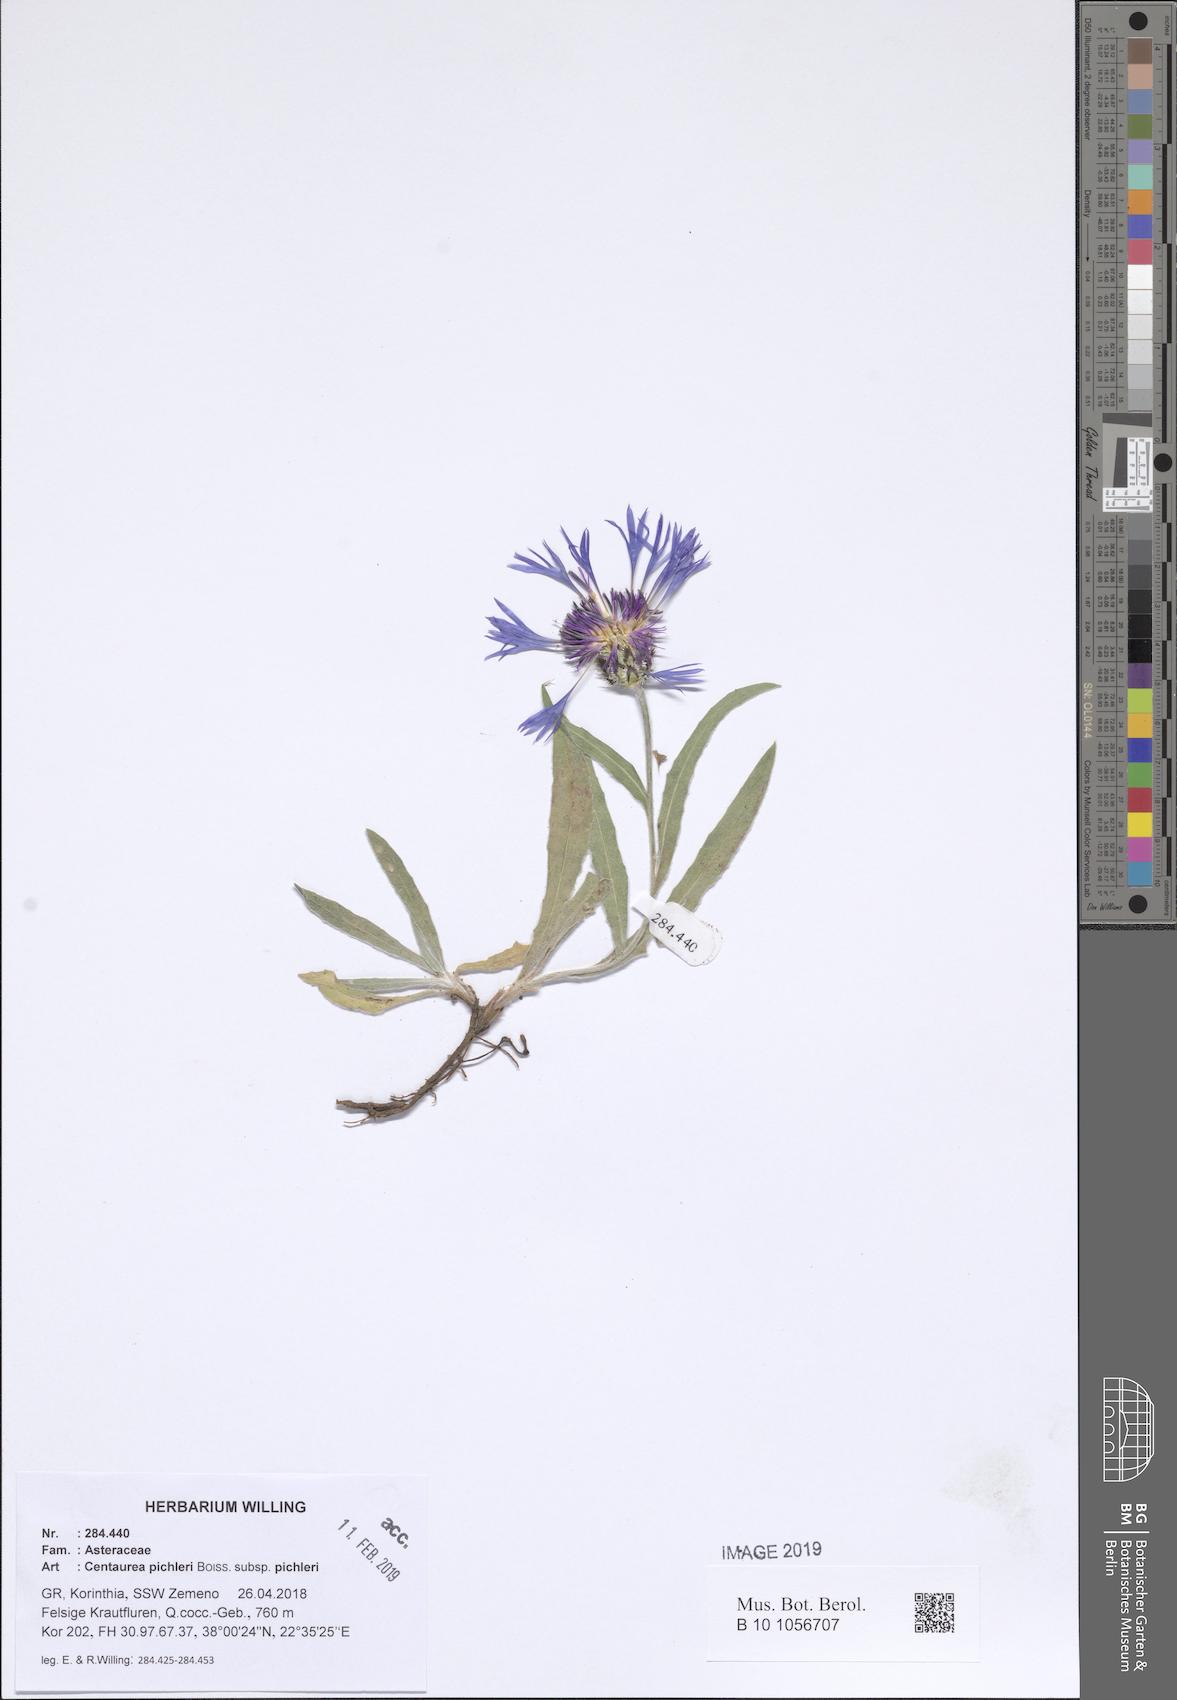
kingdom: Plantae
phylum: Tracheophyta
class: Magnoliopsida
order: Asterales
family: Asteraceae
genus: Centaurea
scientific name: Centaurea pichleri
